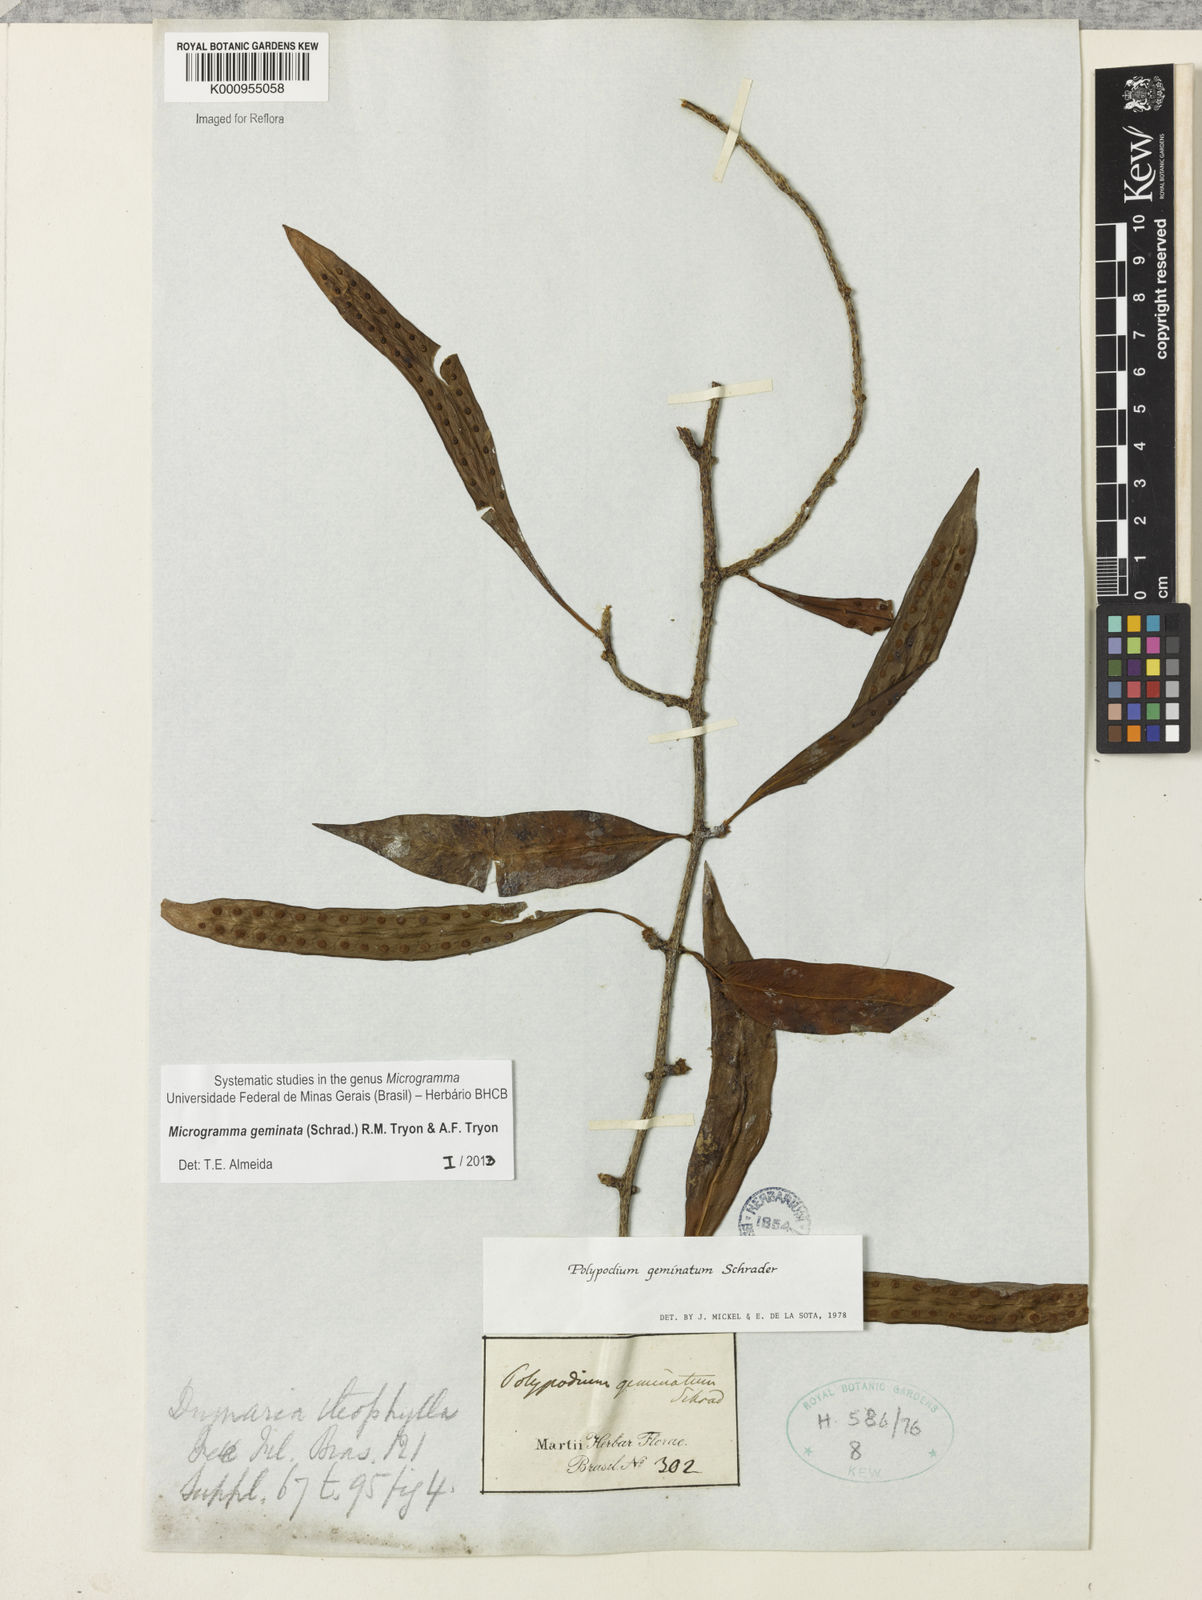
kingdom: Plantae
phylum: Tracheophyta
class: Polypodiopsida
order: Polypodiales
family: Polypodiaceae
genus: Microgramma
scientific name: Microgramma geminata
